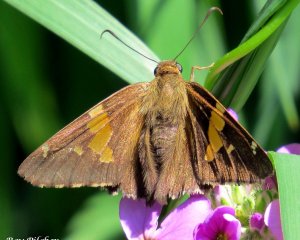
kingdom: Animalia
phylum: Arthropoda
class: Insecta
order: Lepidoptera
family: Hesperiidae
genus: Epargyreus
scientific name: Epargyreus clarus
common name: Silver-spotted Skipper
